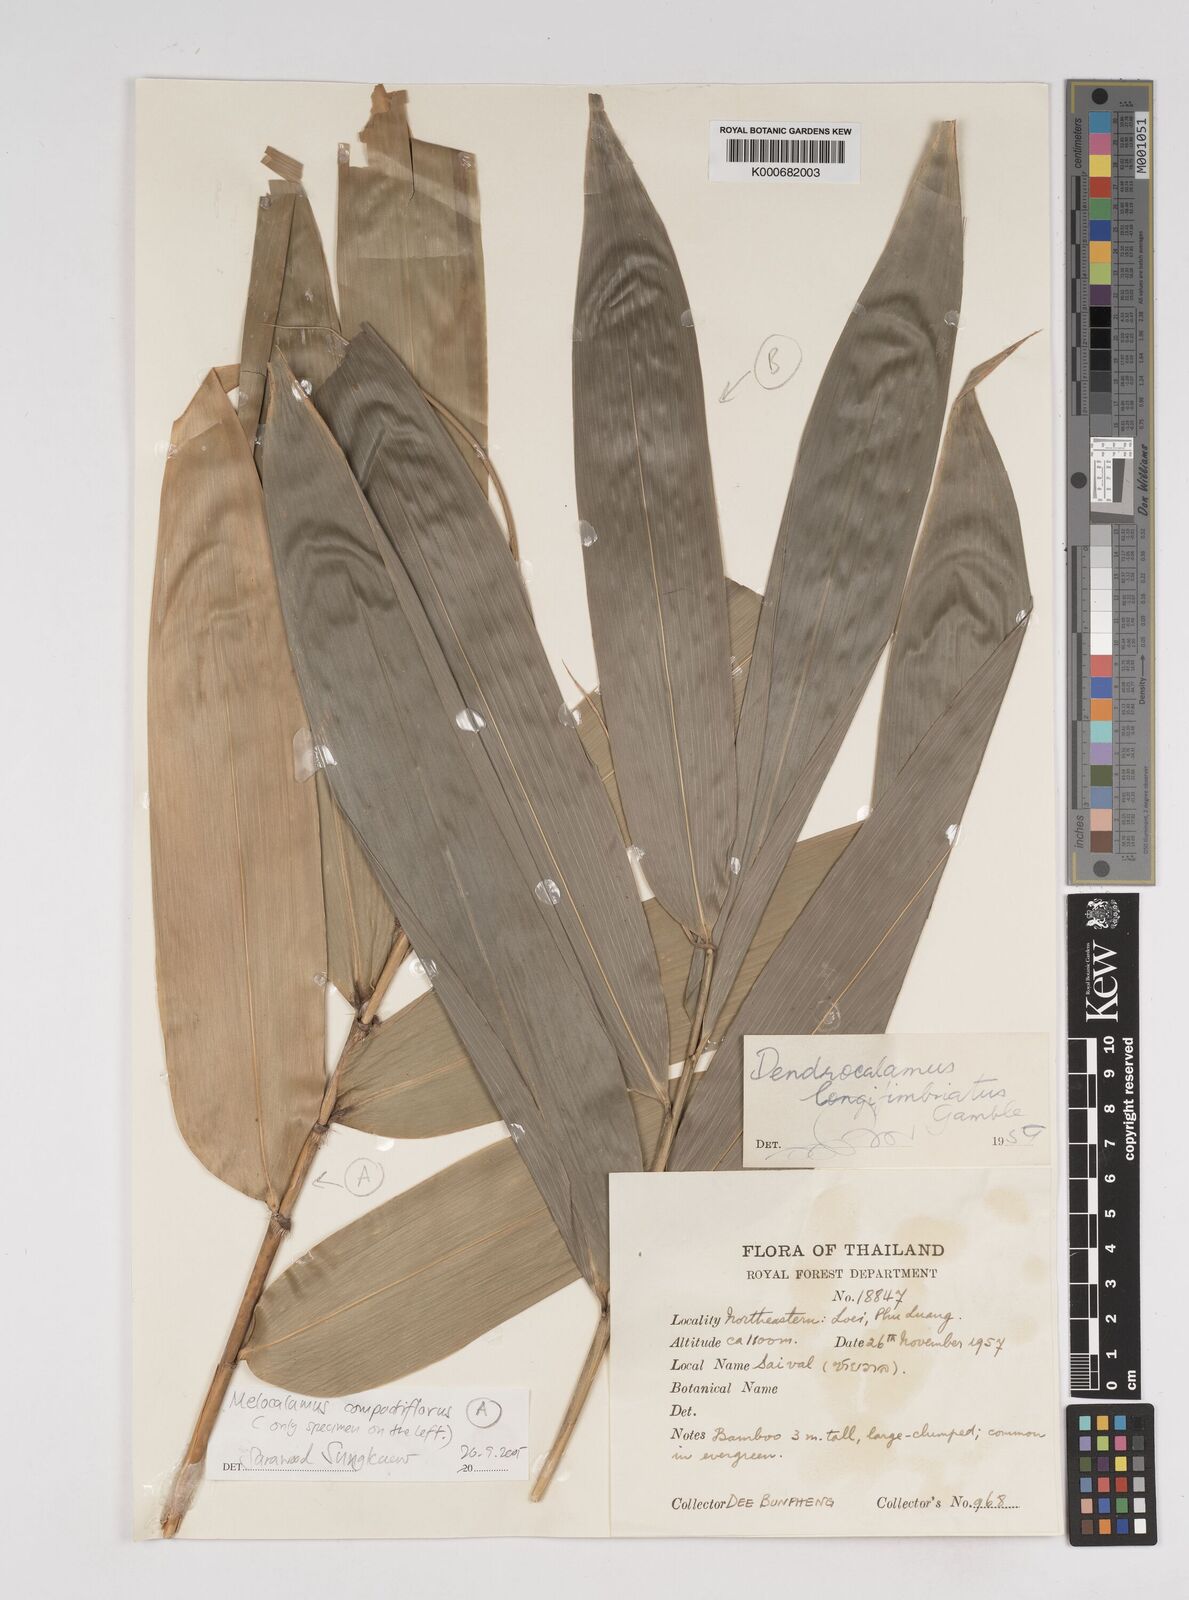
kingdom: Plantae
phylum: Tracheophyta
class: Liliopsida
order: Poales
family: Poaceae
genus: Dendrocalamus
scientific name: Dendrocalamus
